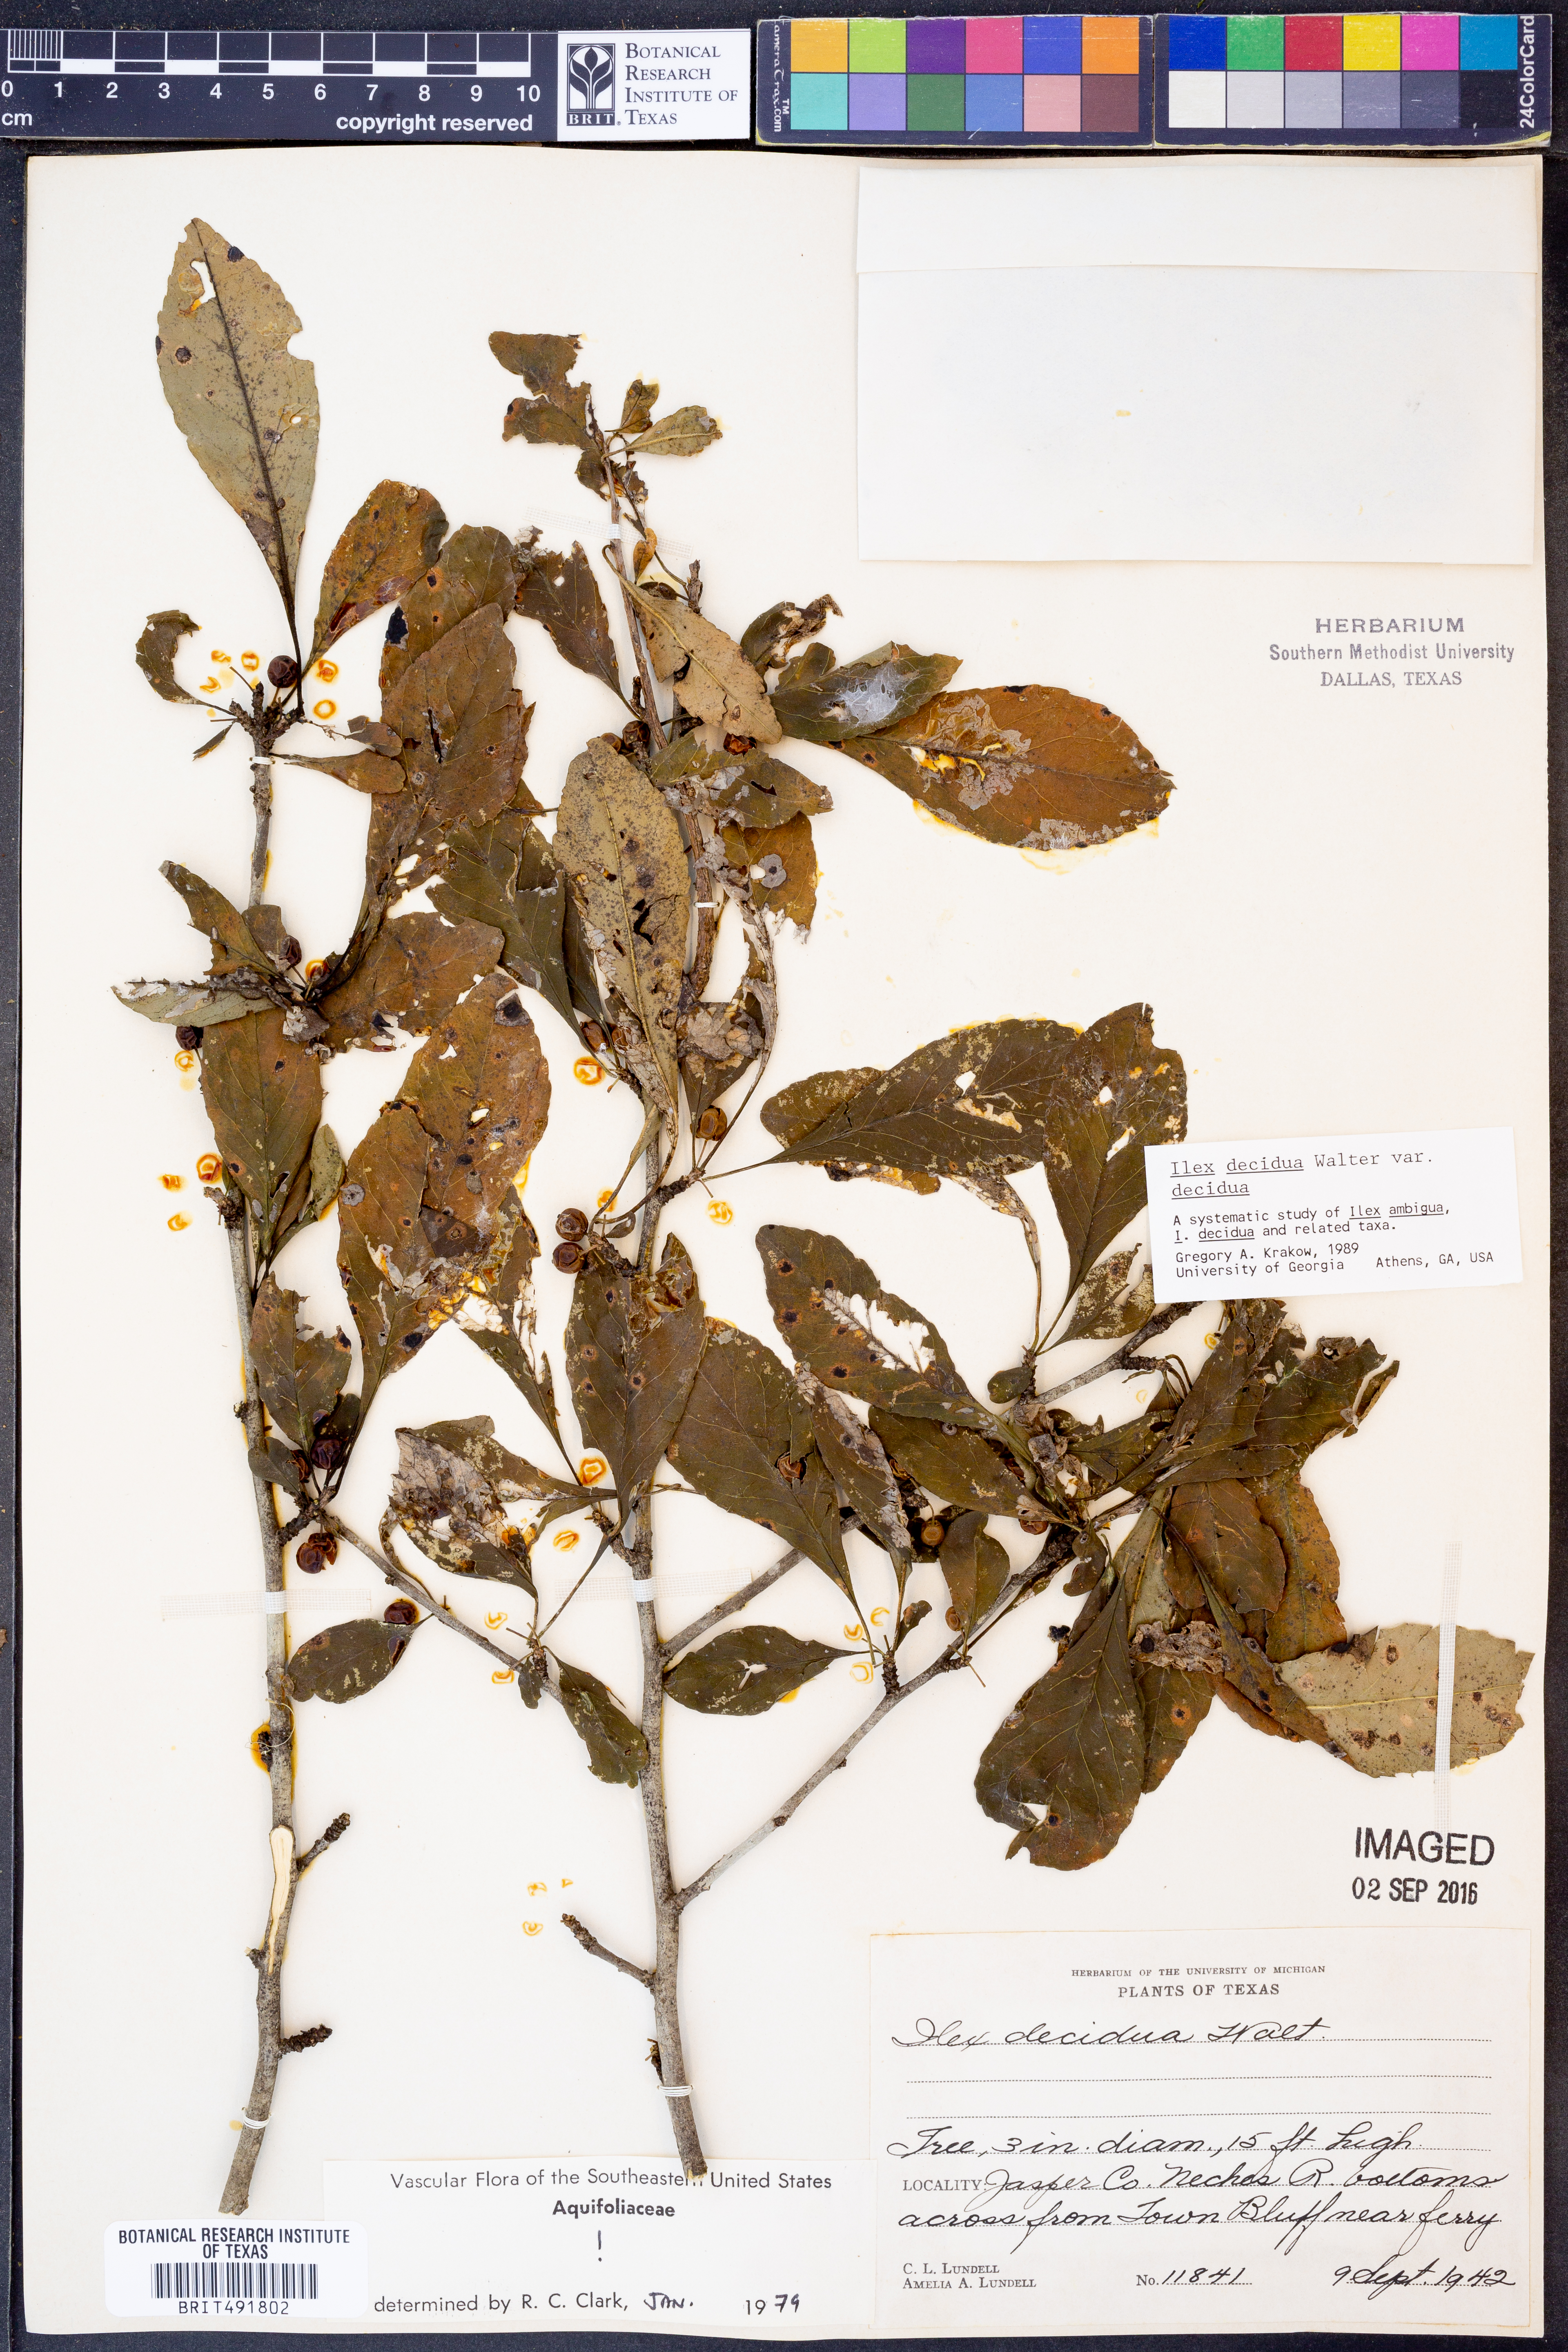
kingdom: Plantae
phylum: Tracheophyta
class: Magnoliopsida
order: Aquifoliales
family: Aquifoliaceae
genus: Ilex
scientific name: Ilex decidua
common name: Possum-haw
